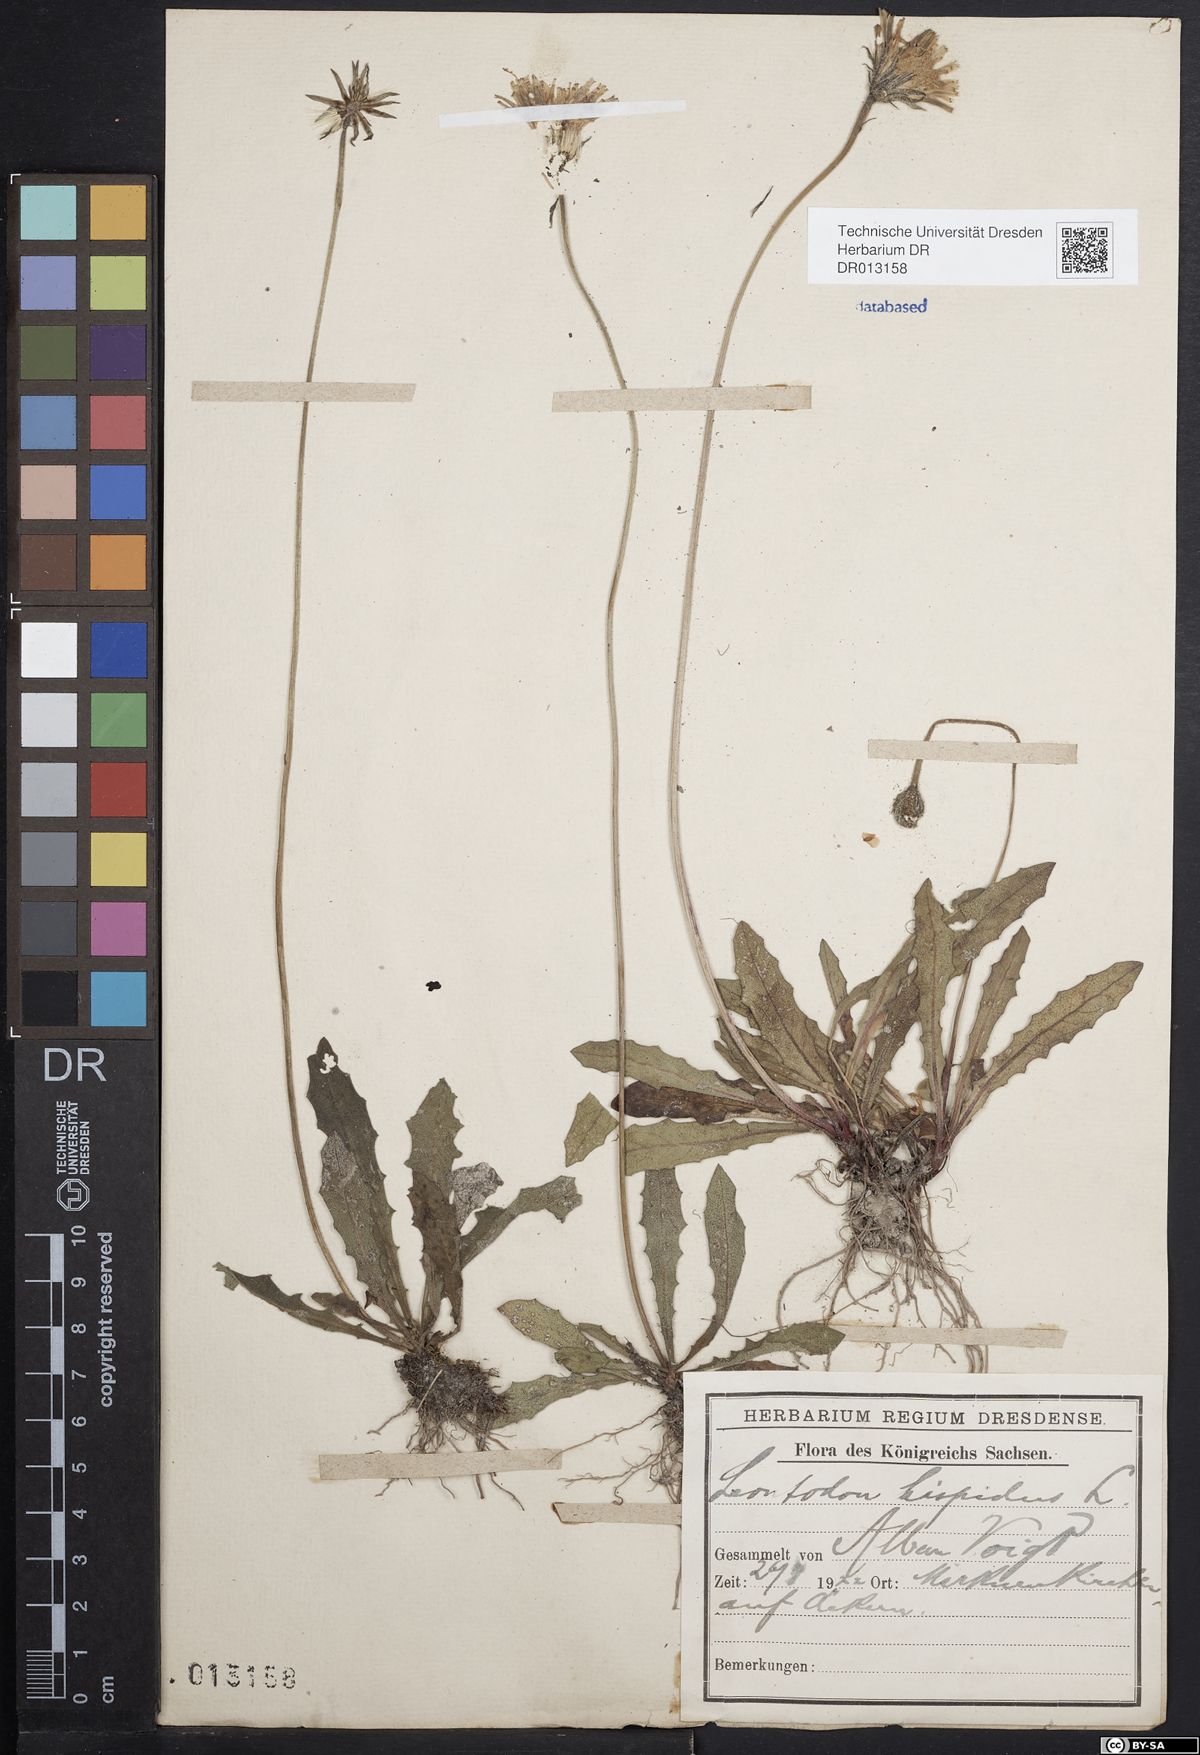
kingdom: Plantae
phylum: Tracheophyta
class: Magnoliopsida
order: Asterales
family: Asteraceae
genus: Leontodon
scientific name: Leontodon hispidus
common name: Rough hawkbit
